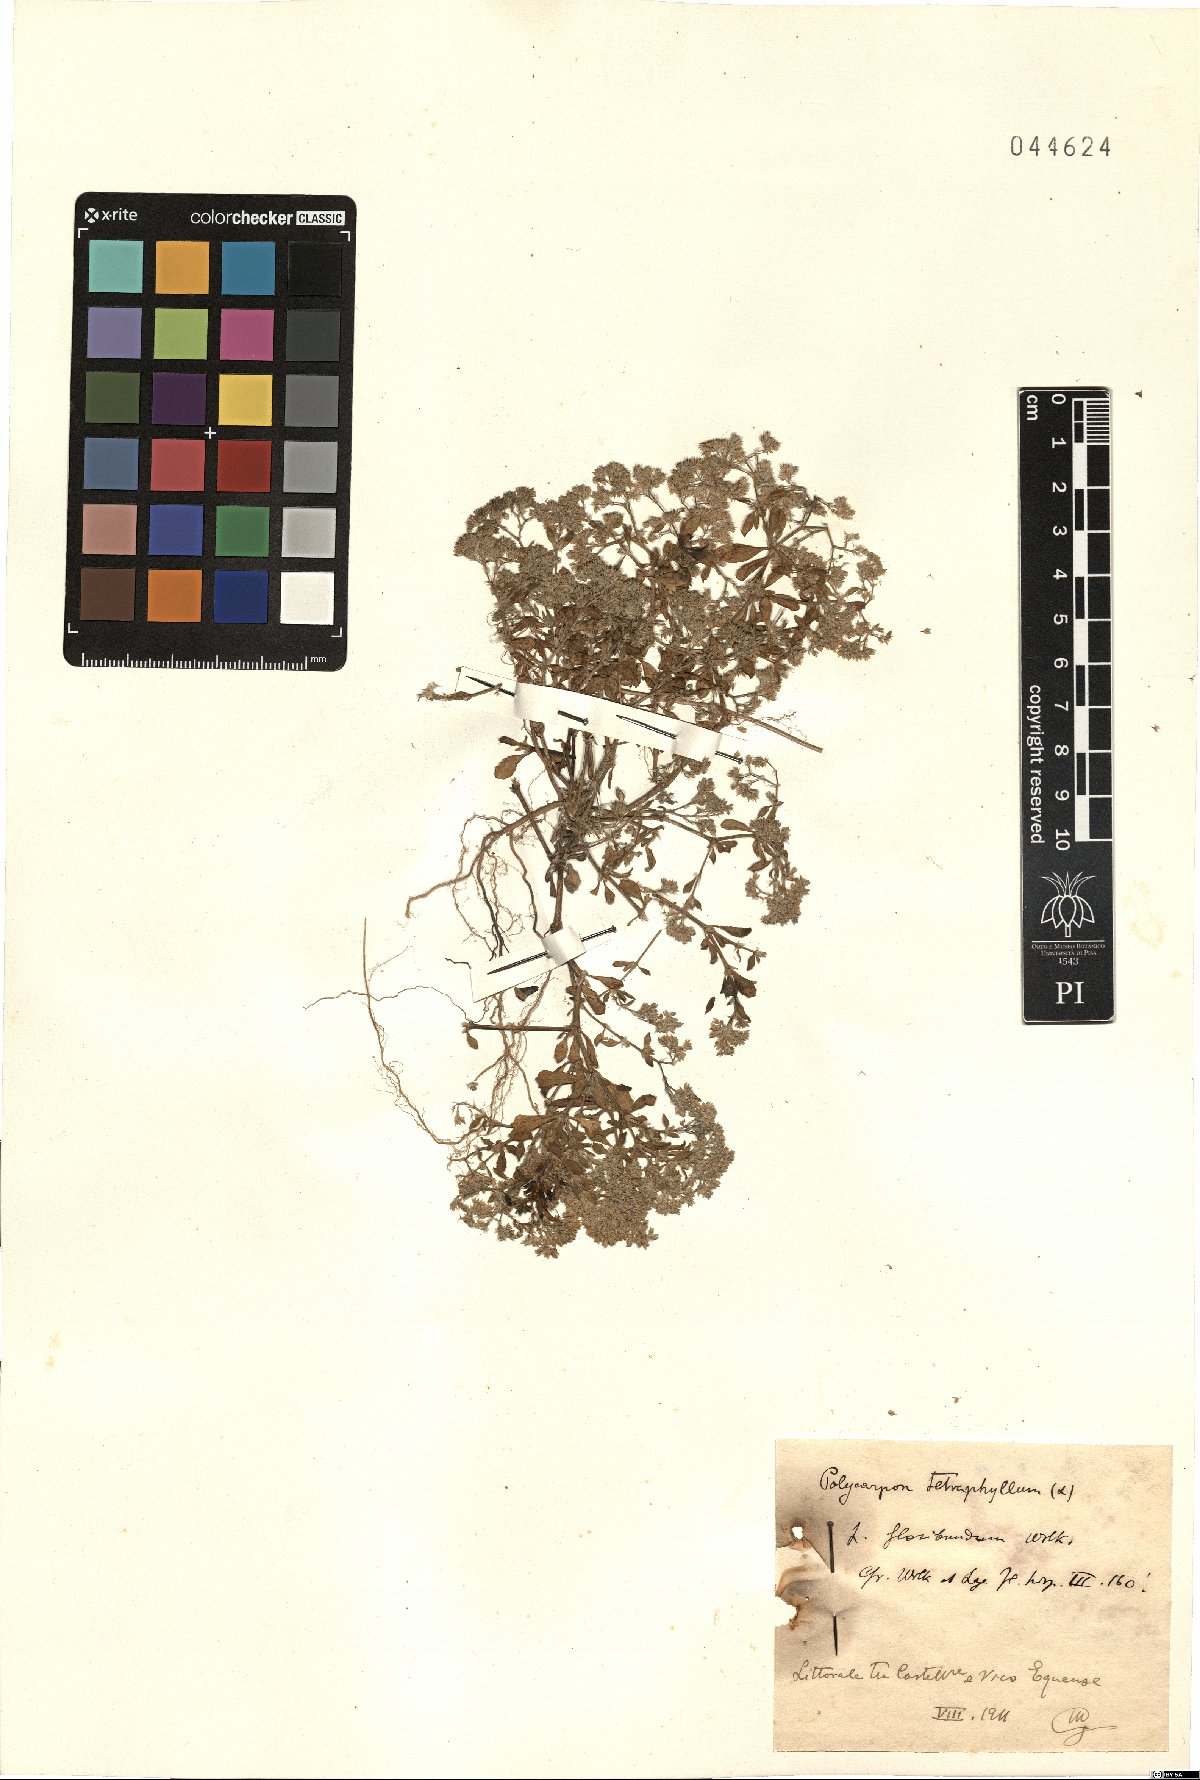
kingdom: Plantae
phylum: Tracheophyta
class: Magnoliopsida
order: Caryophyllales
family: Caryophyllaceae
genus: Polycarpon
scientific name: Polycarpon tetraphyllum
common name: Four-leaved all-seed
